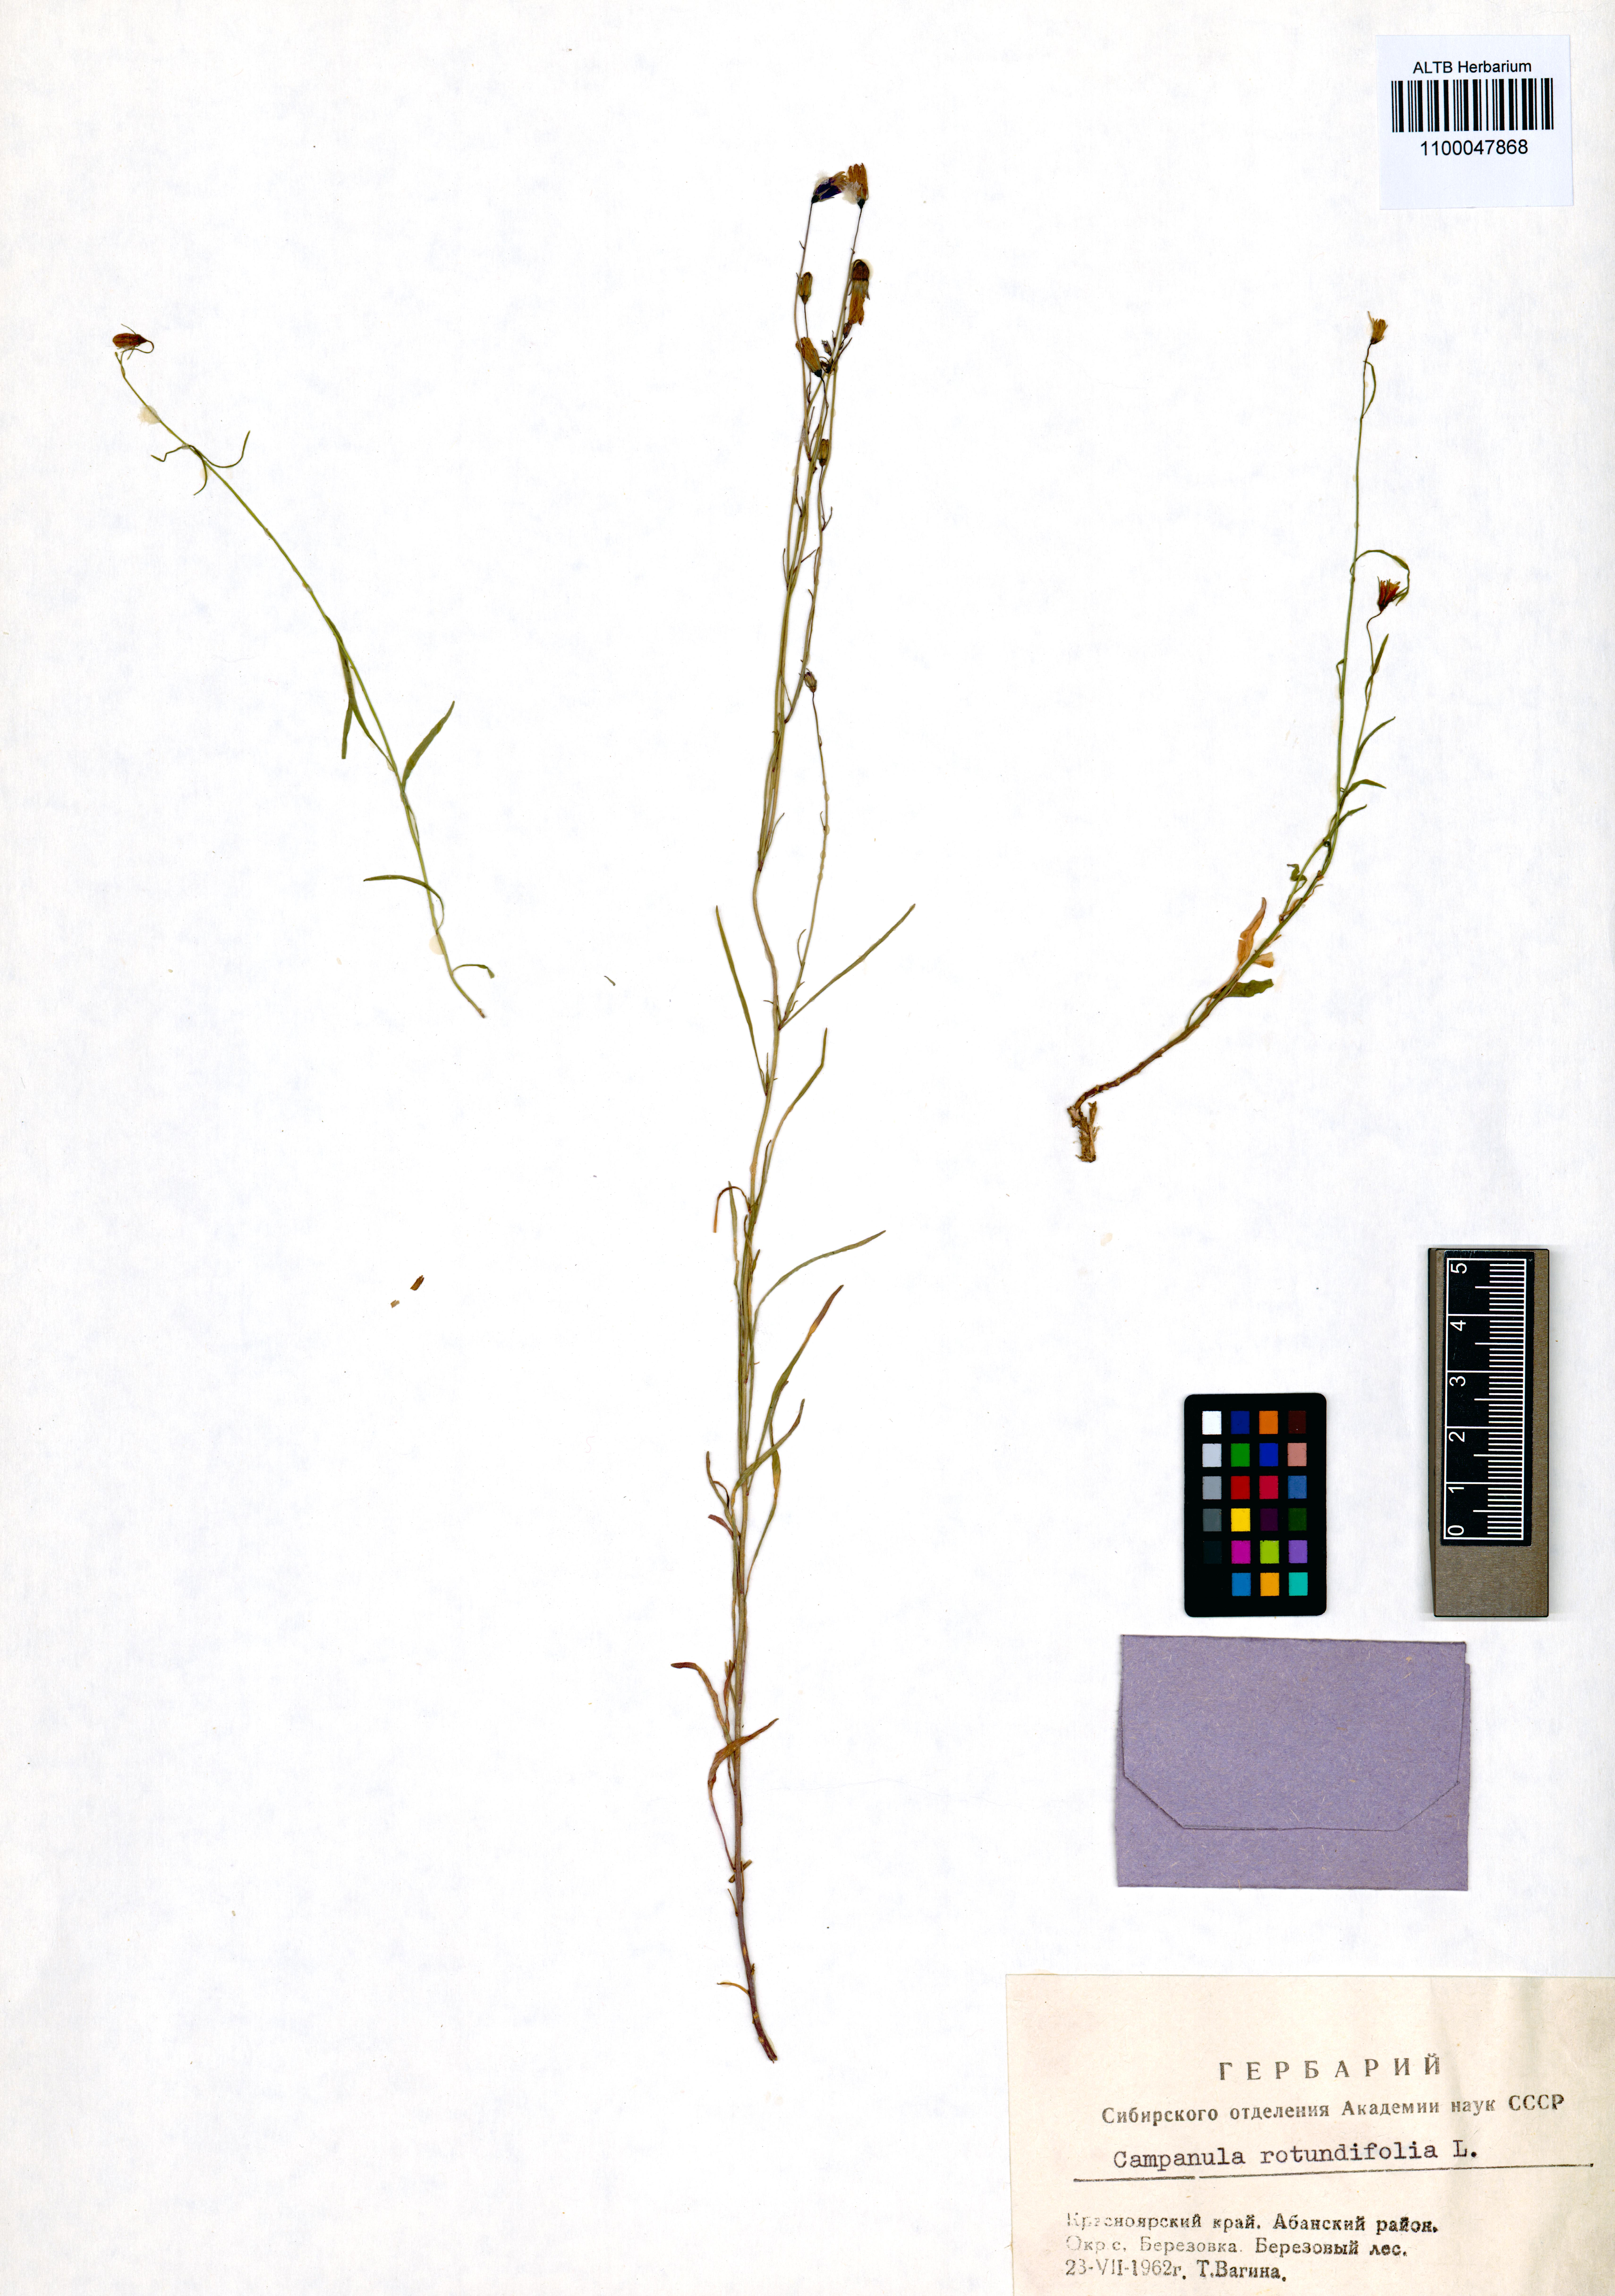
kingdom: Plantae
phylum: Tracheophyta
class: Magnoliopsida
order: Asterales
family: Campanulaceae
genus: Campanula
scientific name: Campanula rotundifolia
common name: Harebell
